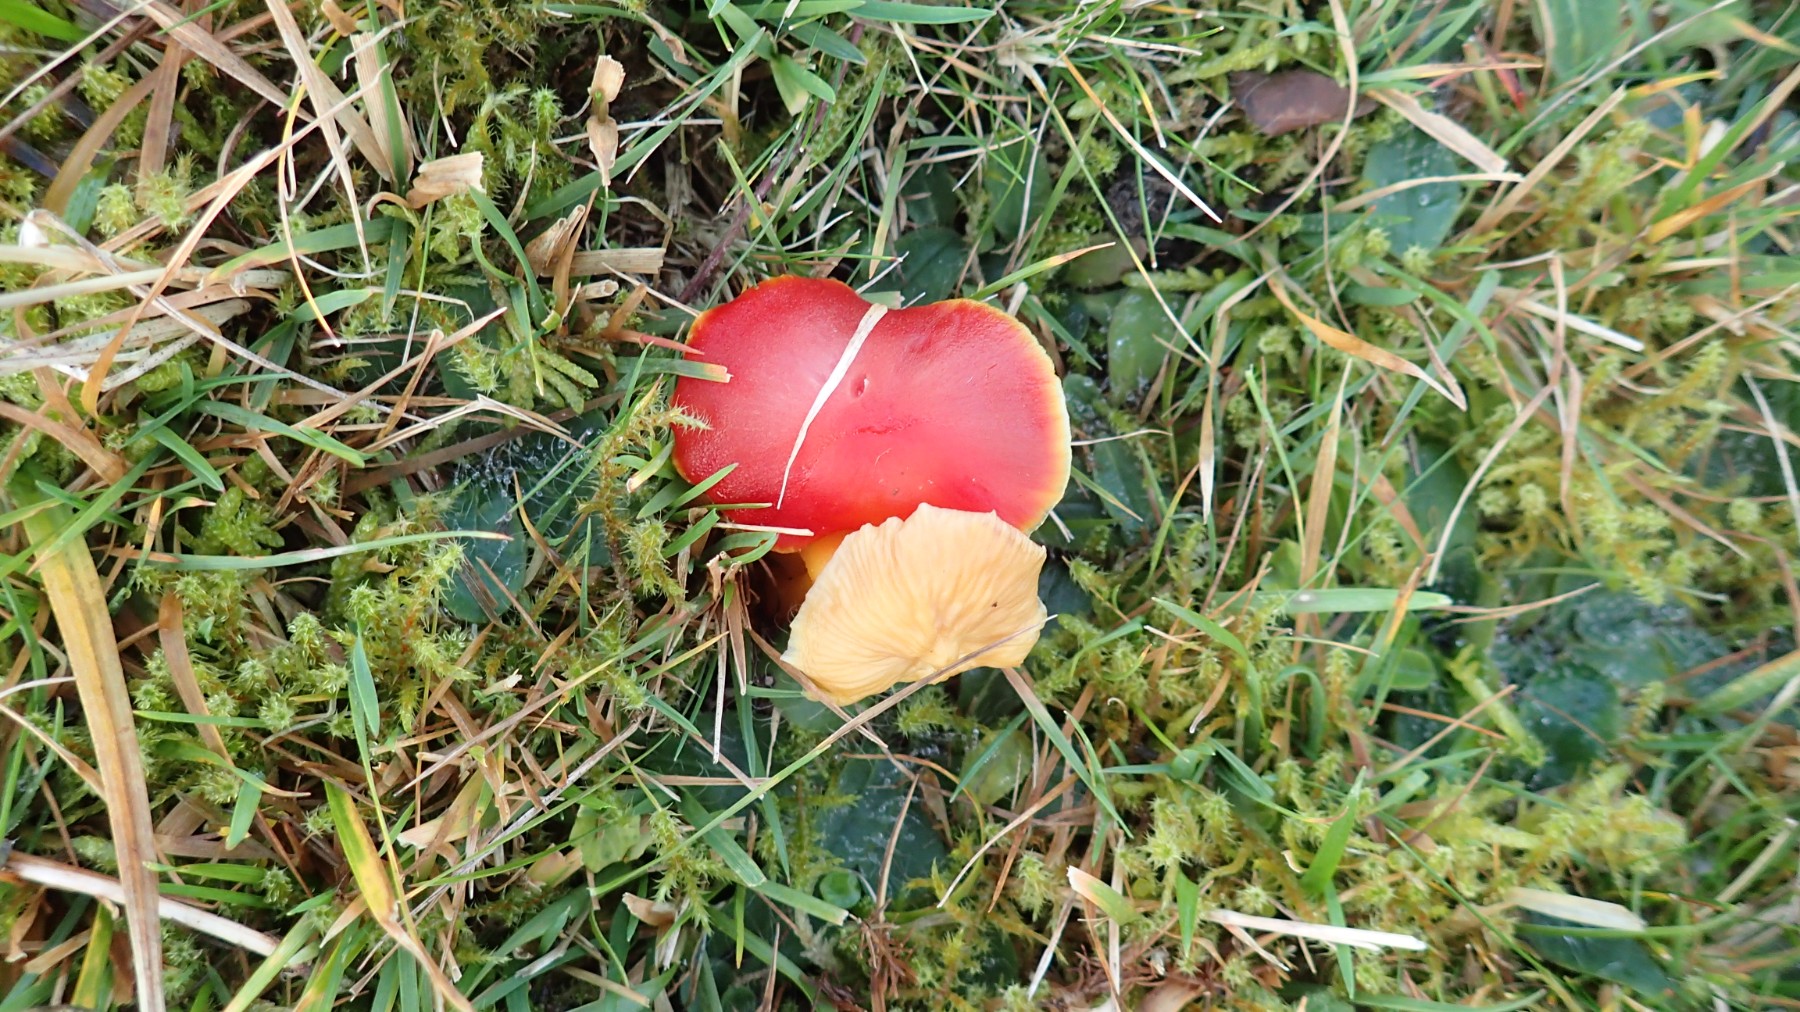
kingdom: Fungi
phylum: Basidiomycota
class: Agaricomycetes
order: Agaricales
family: Hygrophoraceae
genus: Hygrocybe
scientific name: Hygrocybe coccinea
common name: cinnober-vokshat
